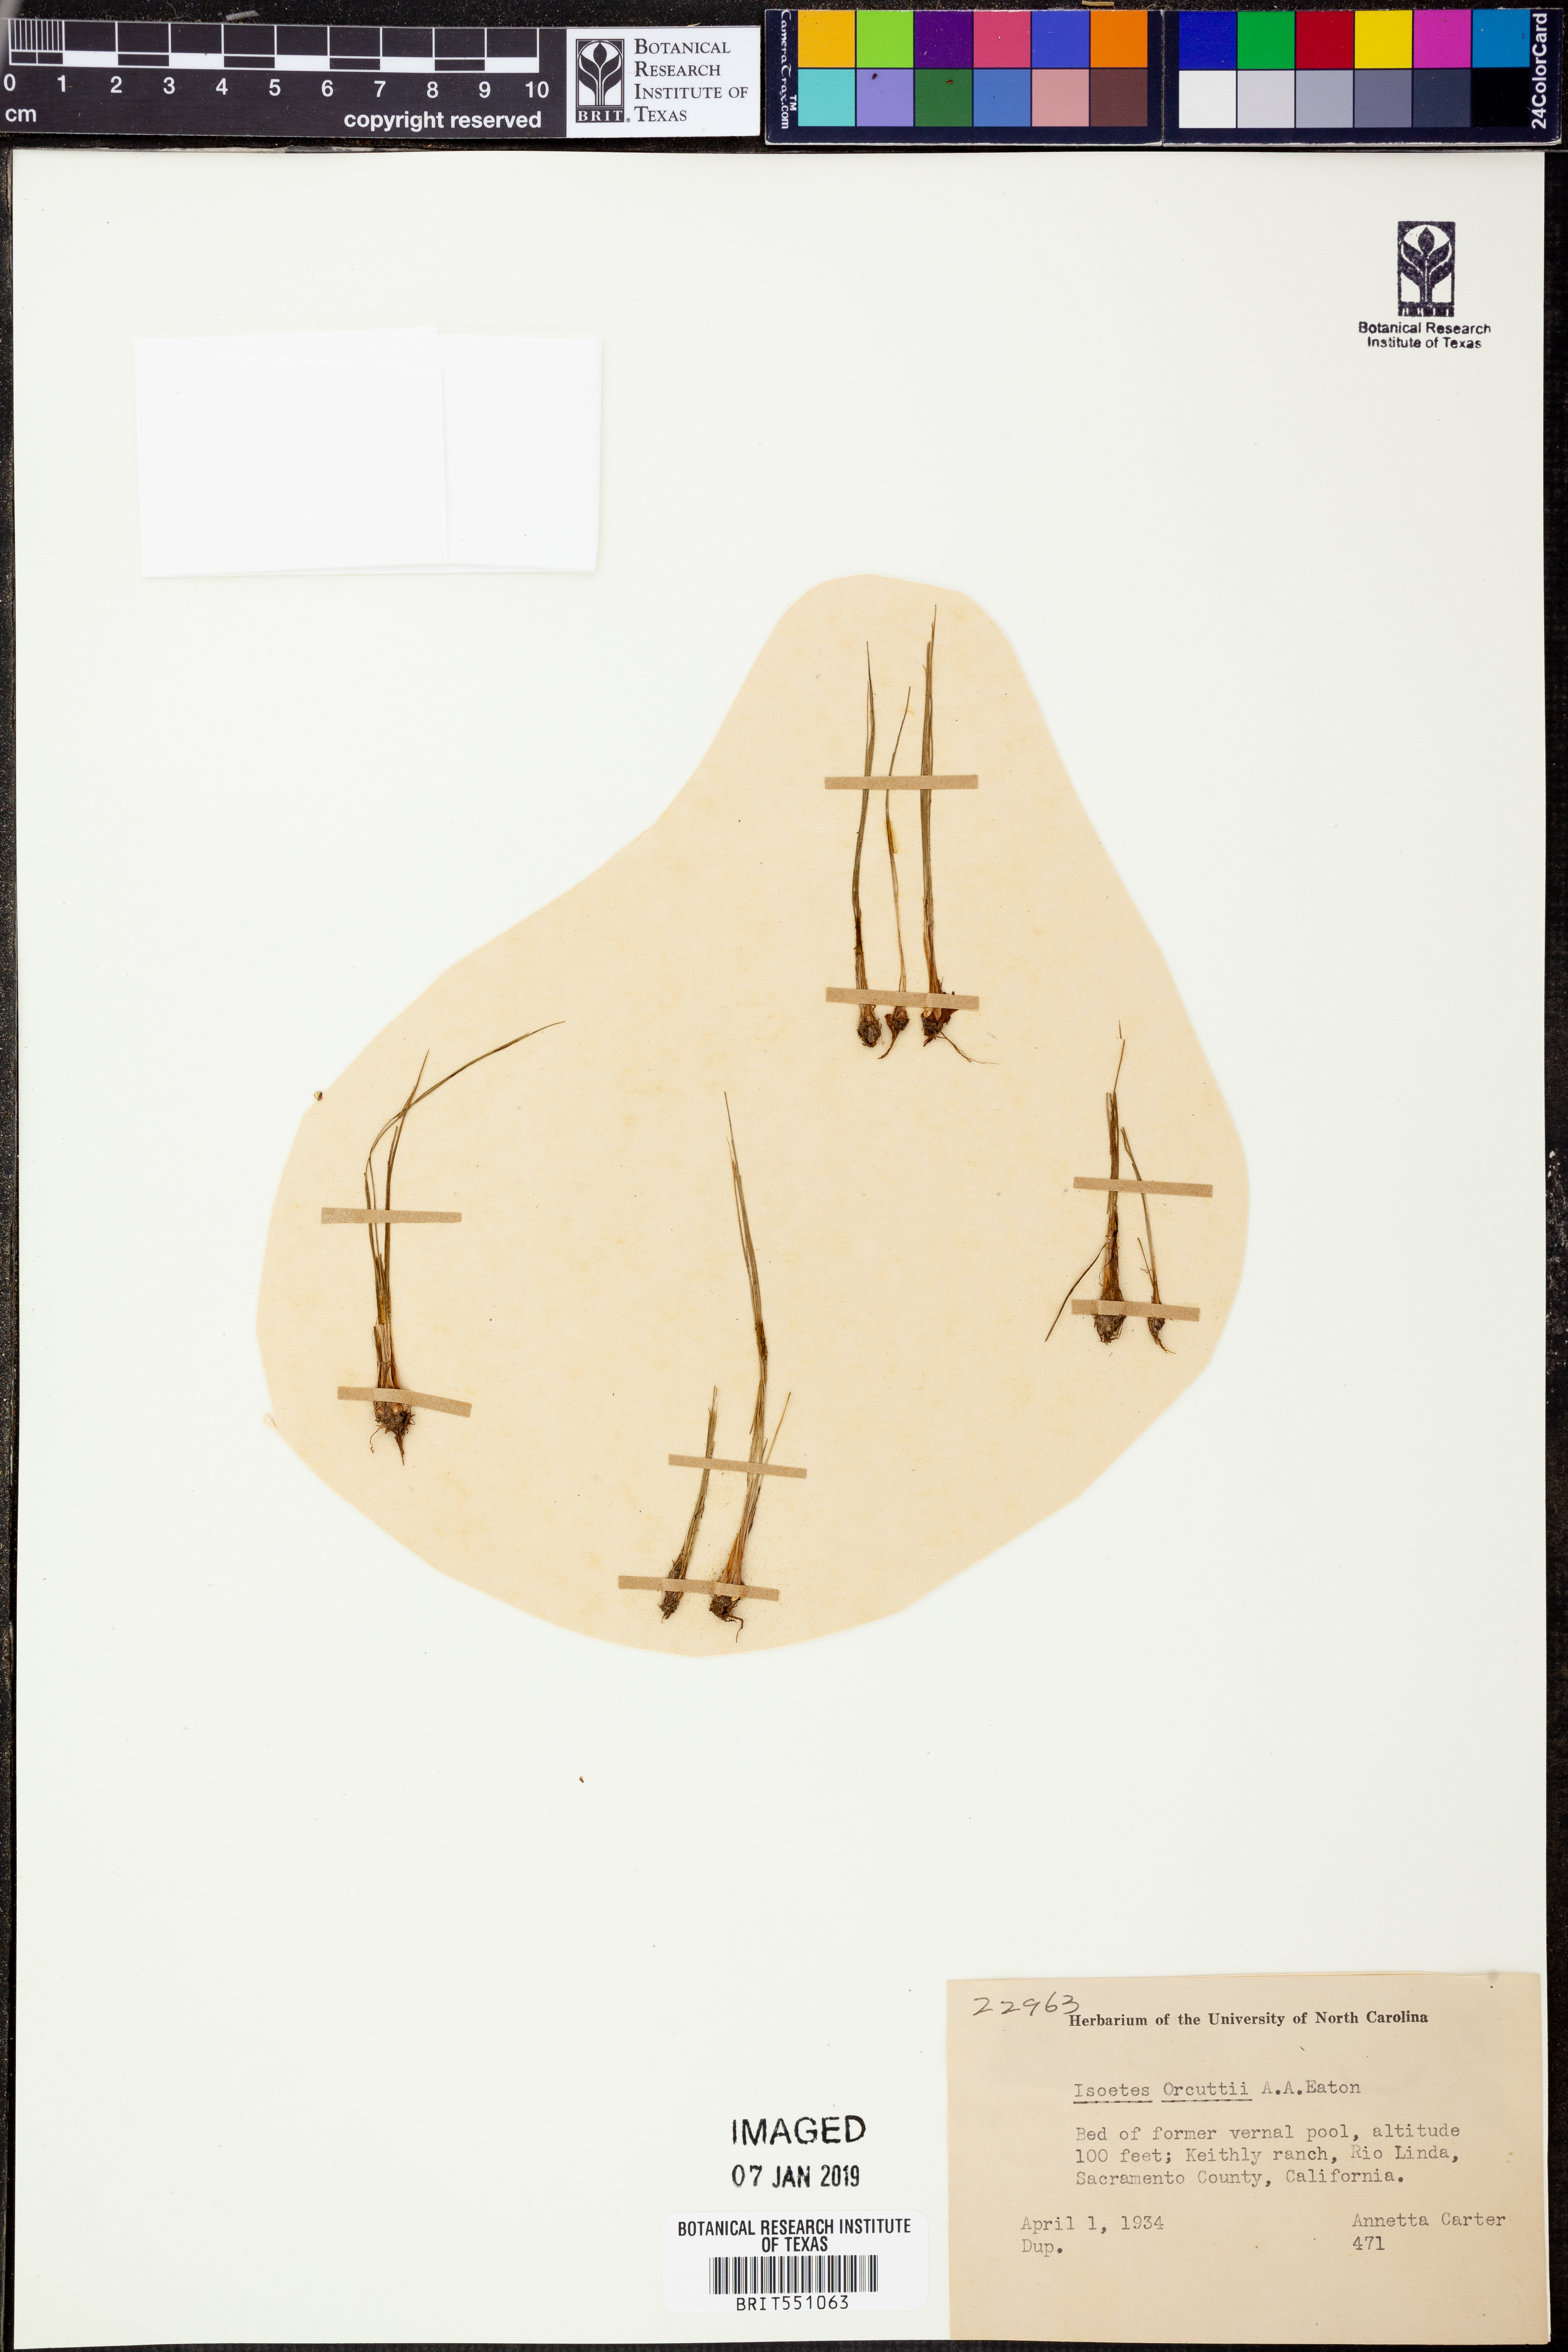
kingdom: Plantae
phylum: Tracheophyta
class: Lycopodiopsida
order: Isoetales
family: Isoetaceae
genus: Isoetes
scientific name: Isoetes orcuttii
